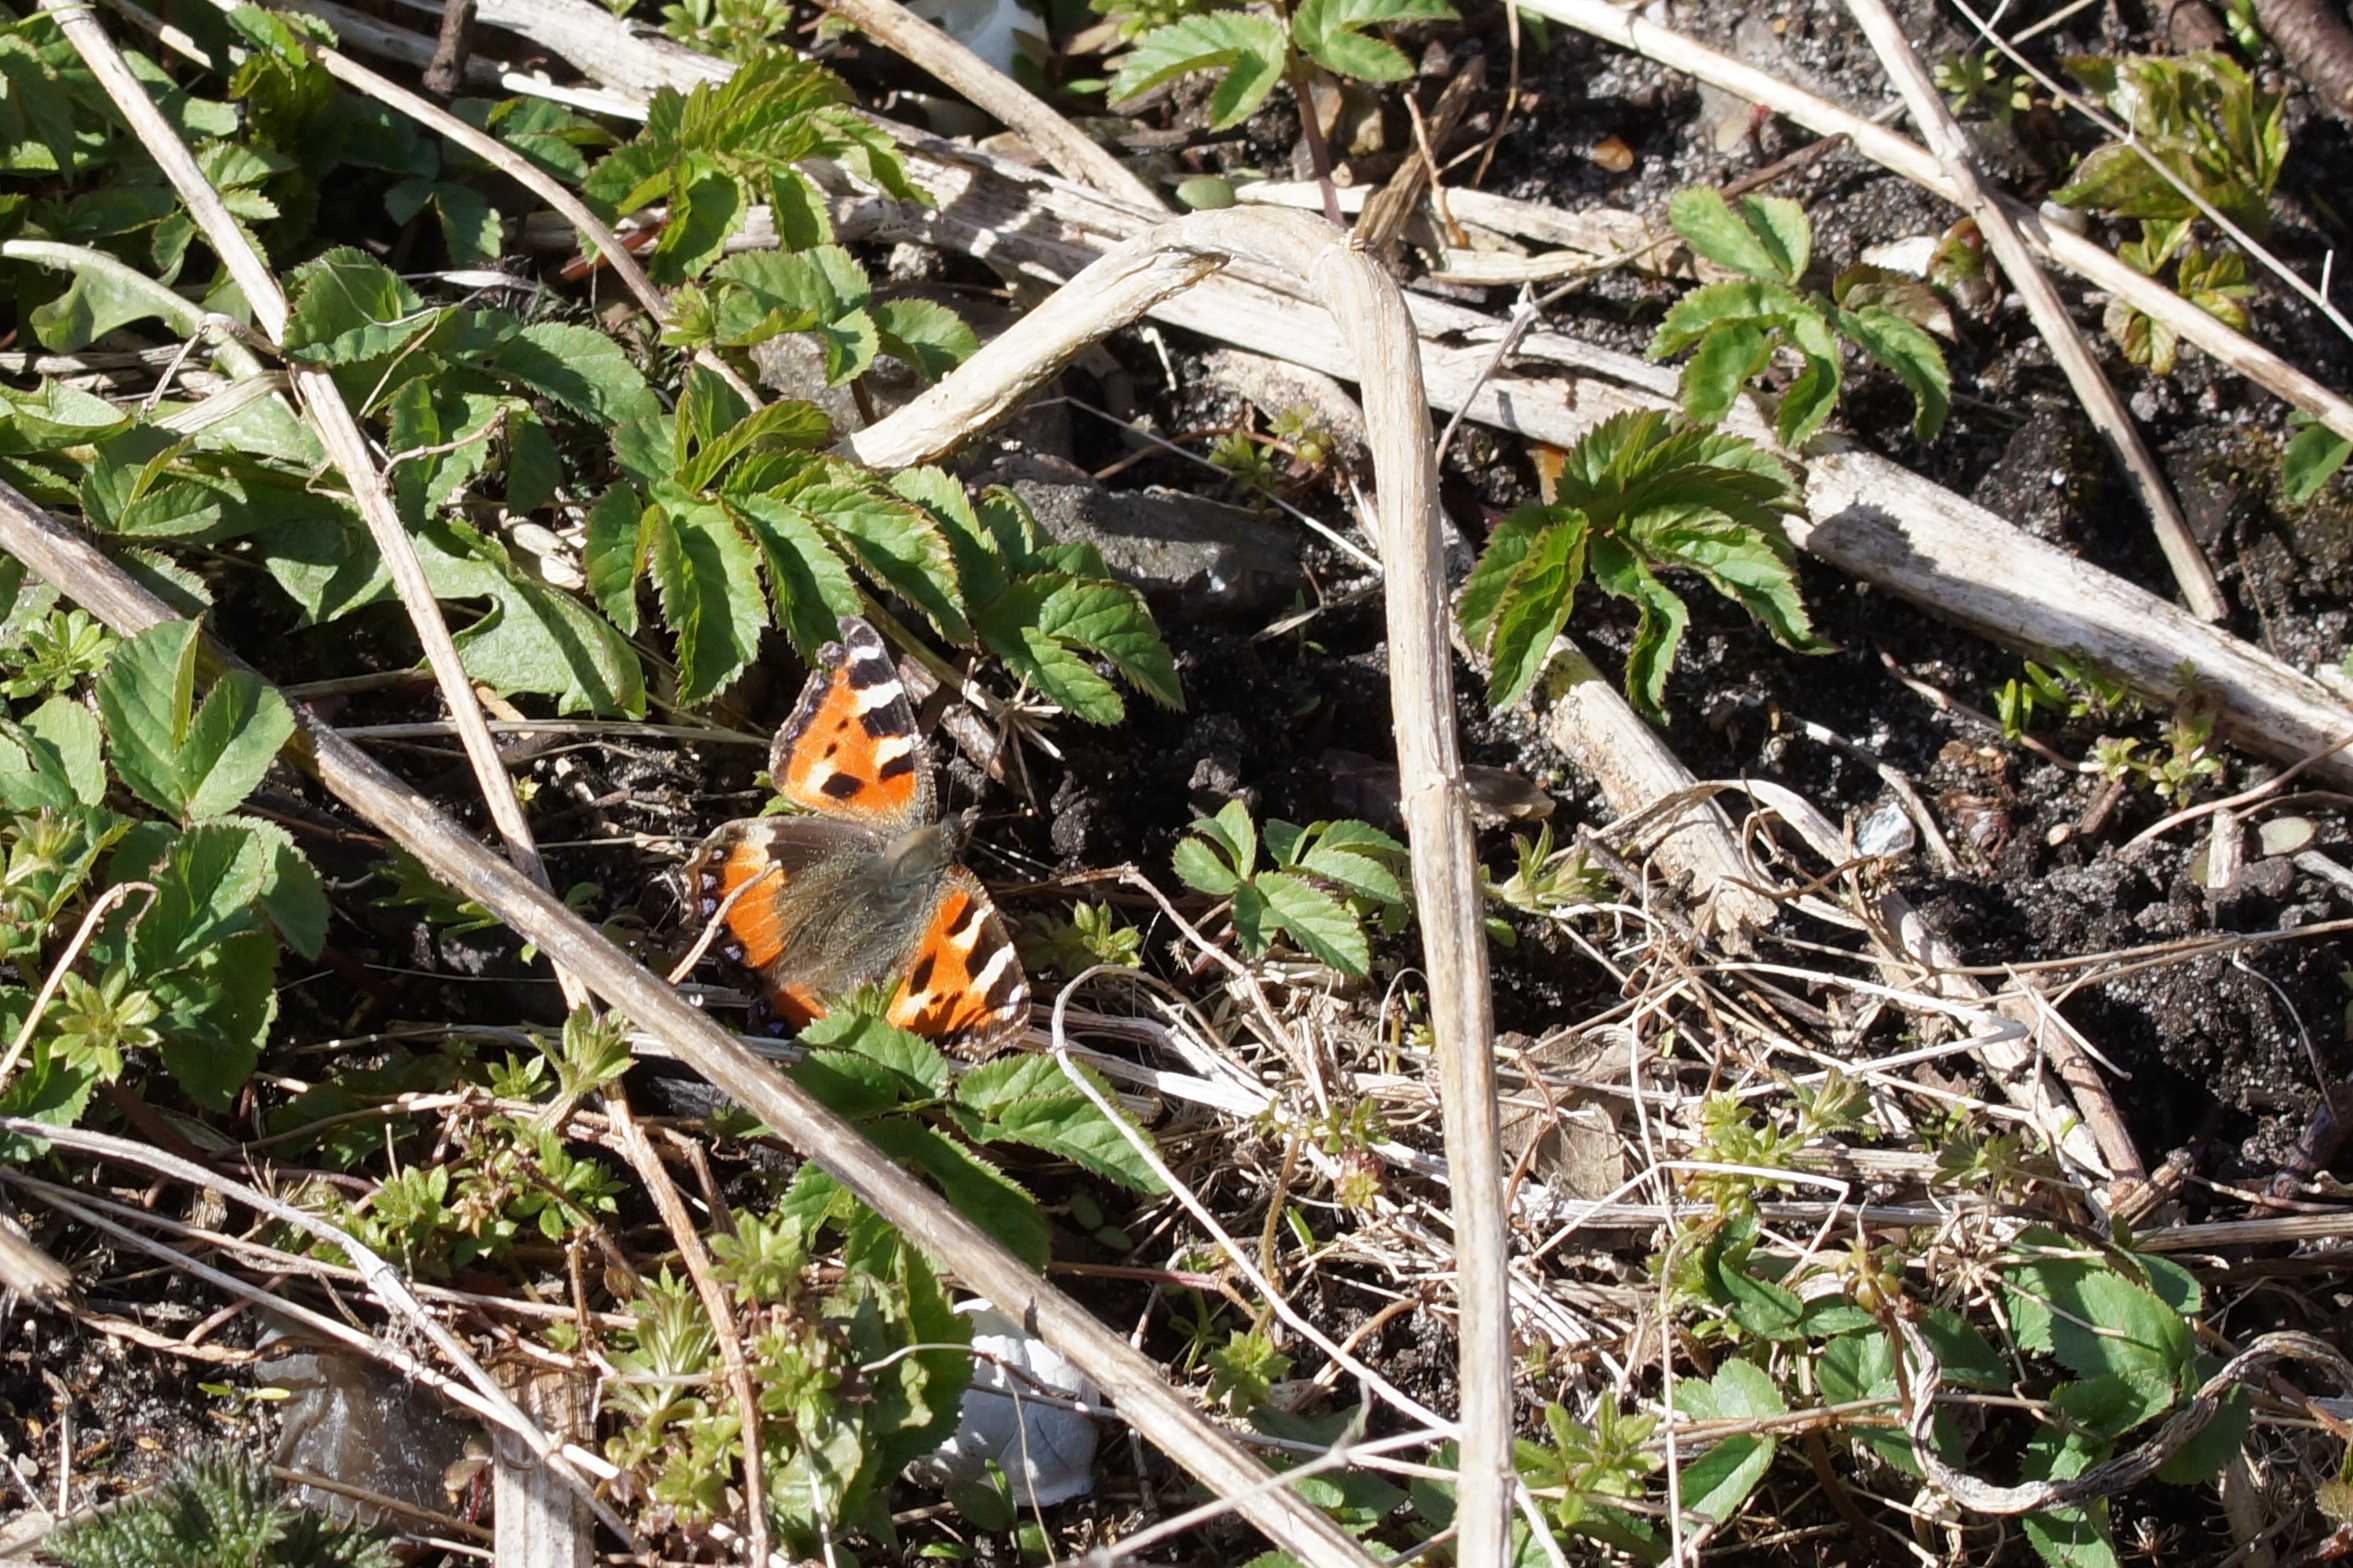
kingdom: Animalia
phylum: Arthropoda
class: Insecta
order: Lepidoptera
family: Nymphalidae
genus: Aglais
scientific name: Aglais urticae
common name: Nældens takvinge
